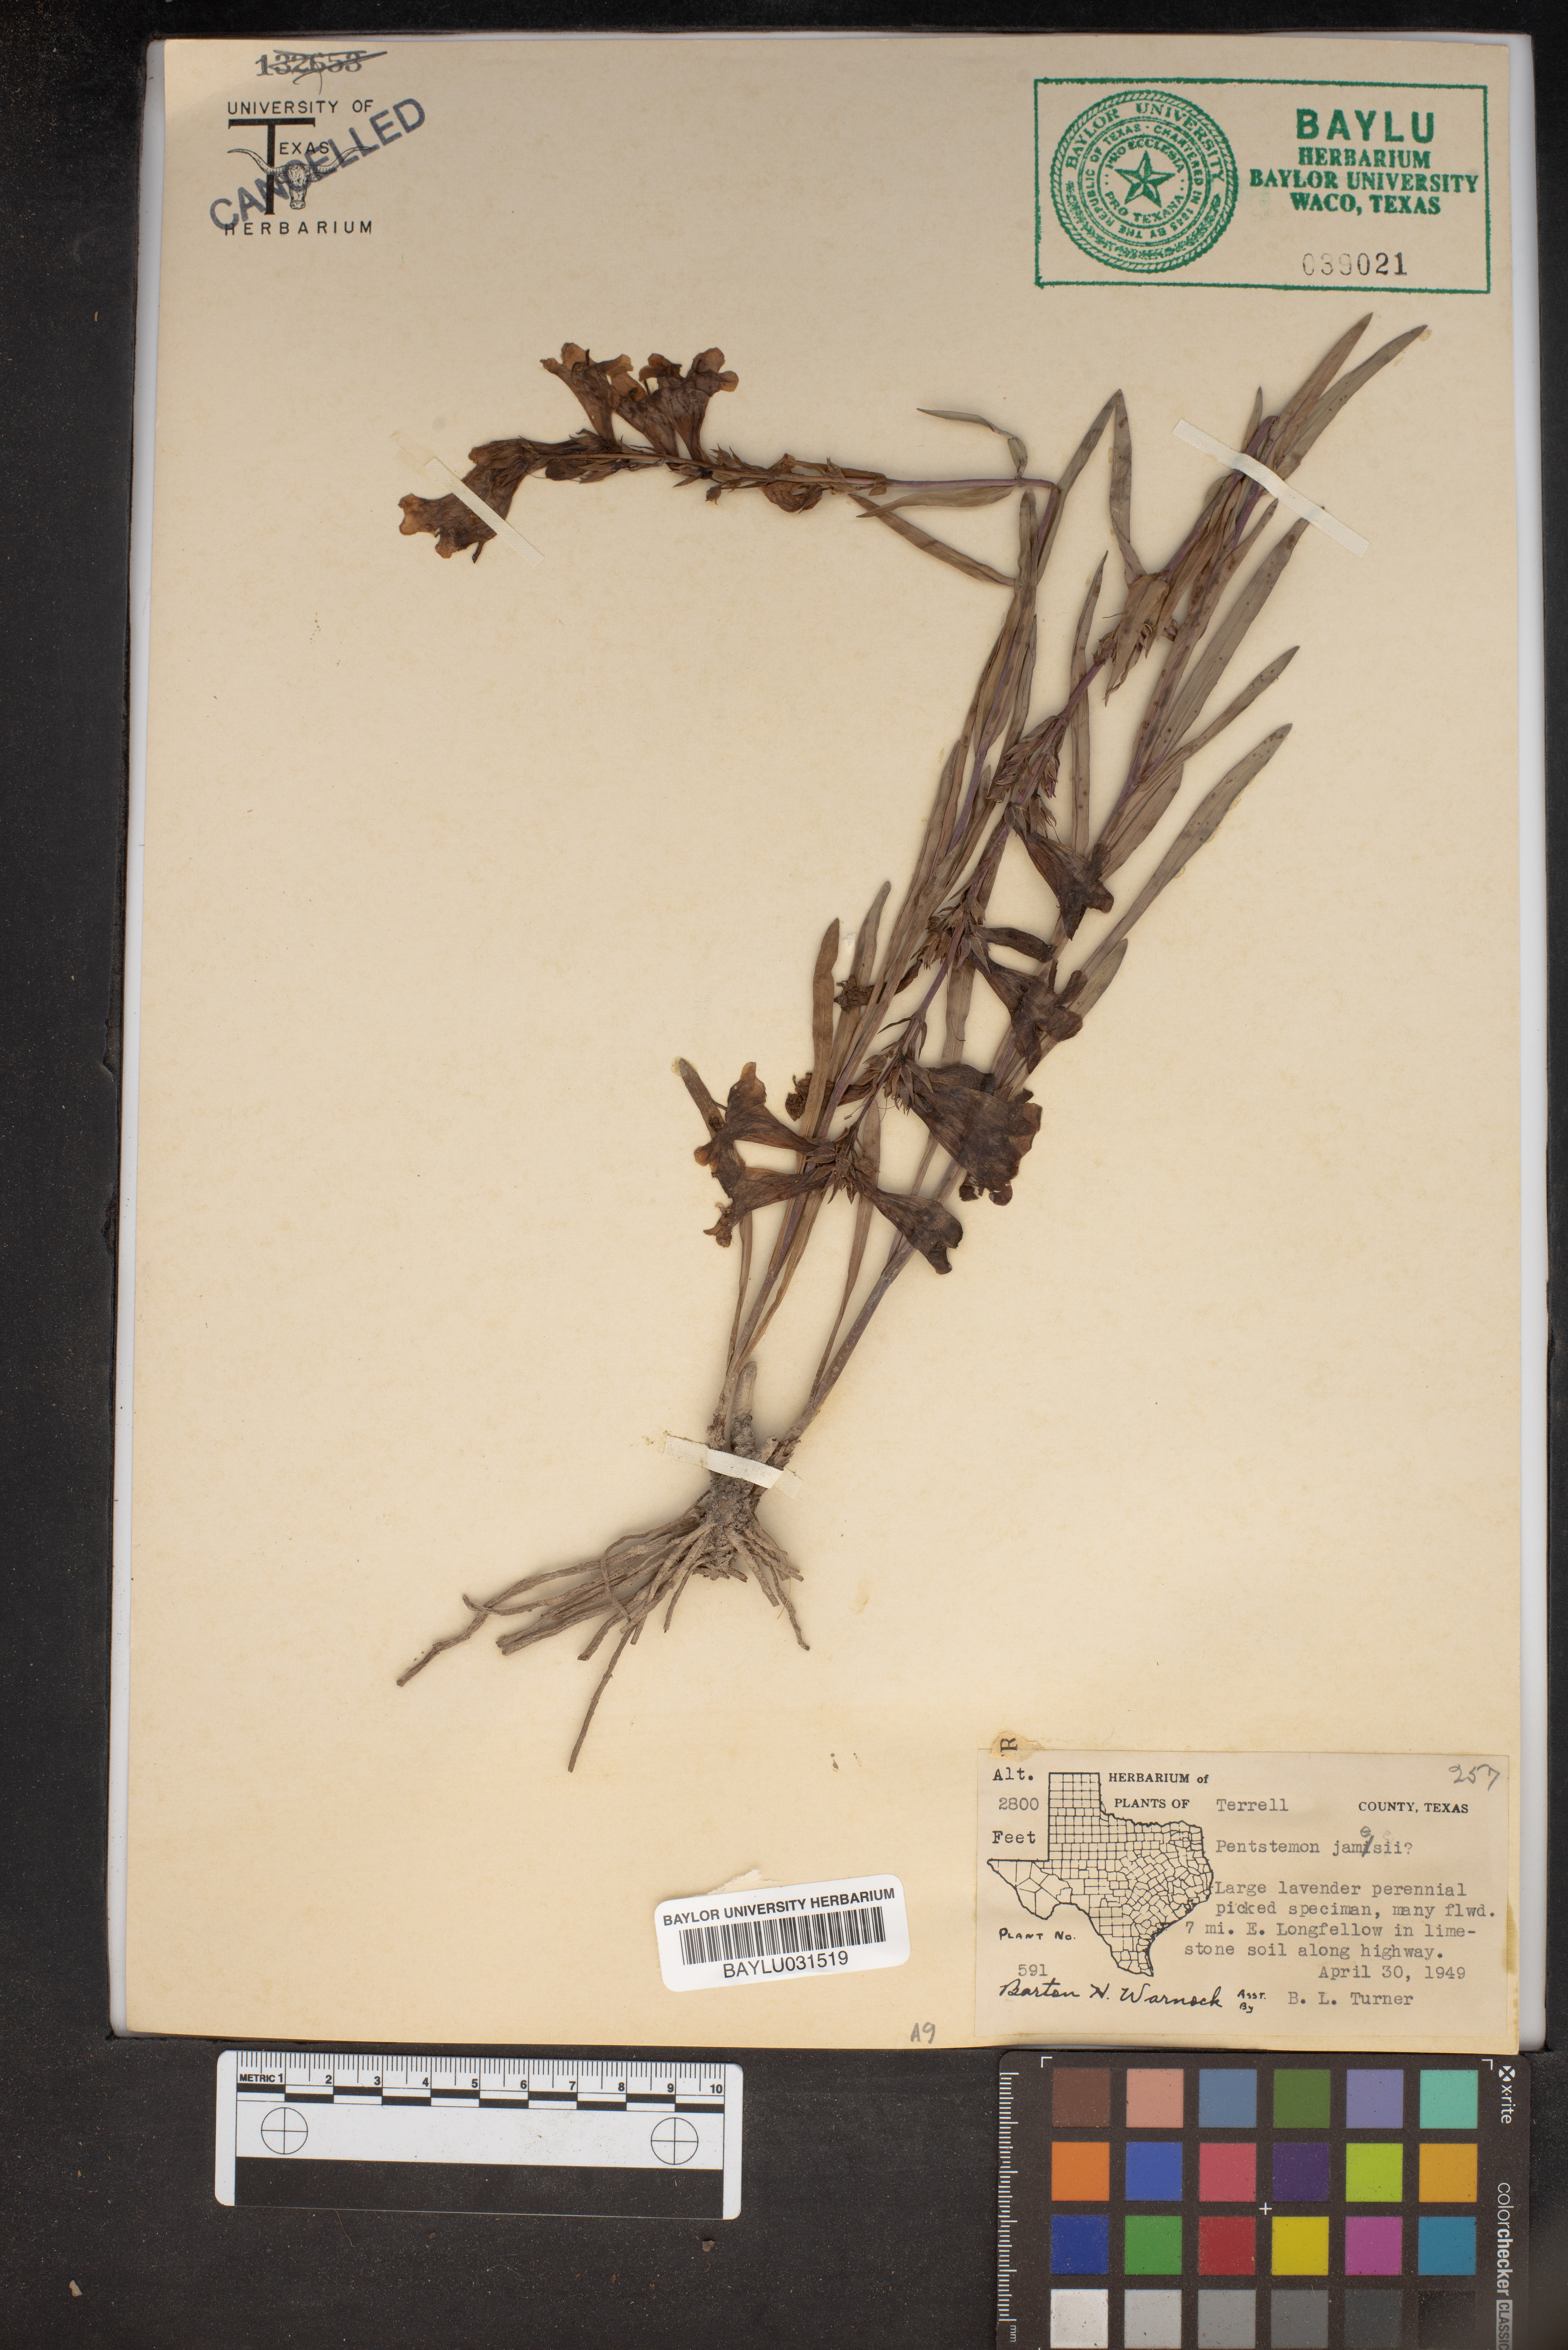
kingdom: Plantae
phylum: Tracheophyta
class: Magnoliopsida
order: Lamiales
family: Plantaginaceae
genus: Penstemon
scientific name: Penstemon jamesii
